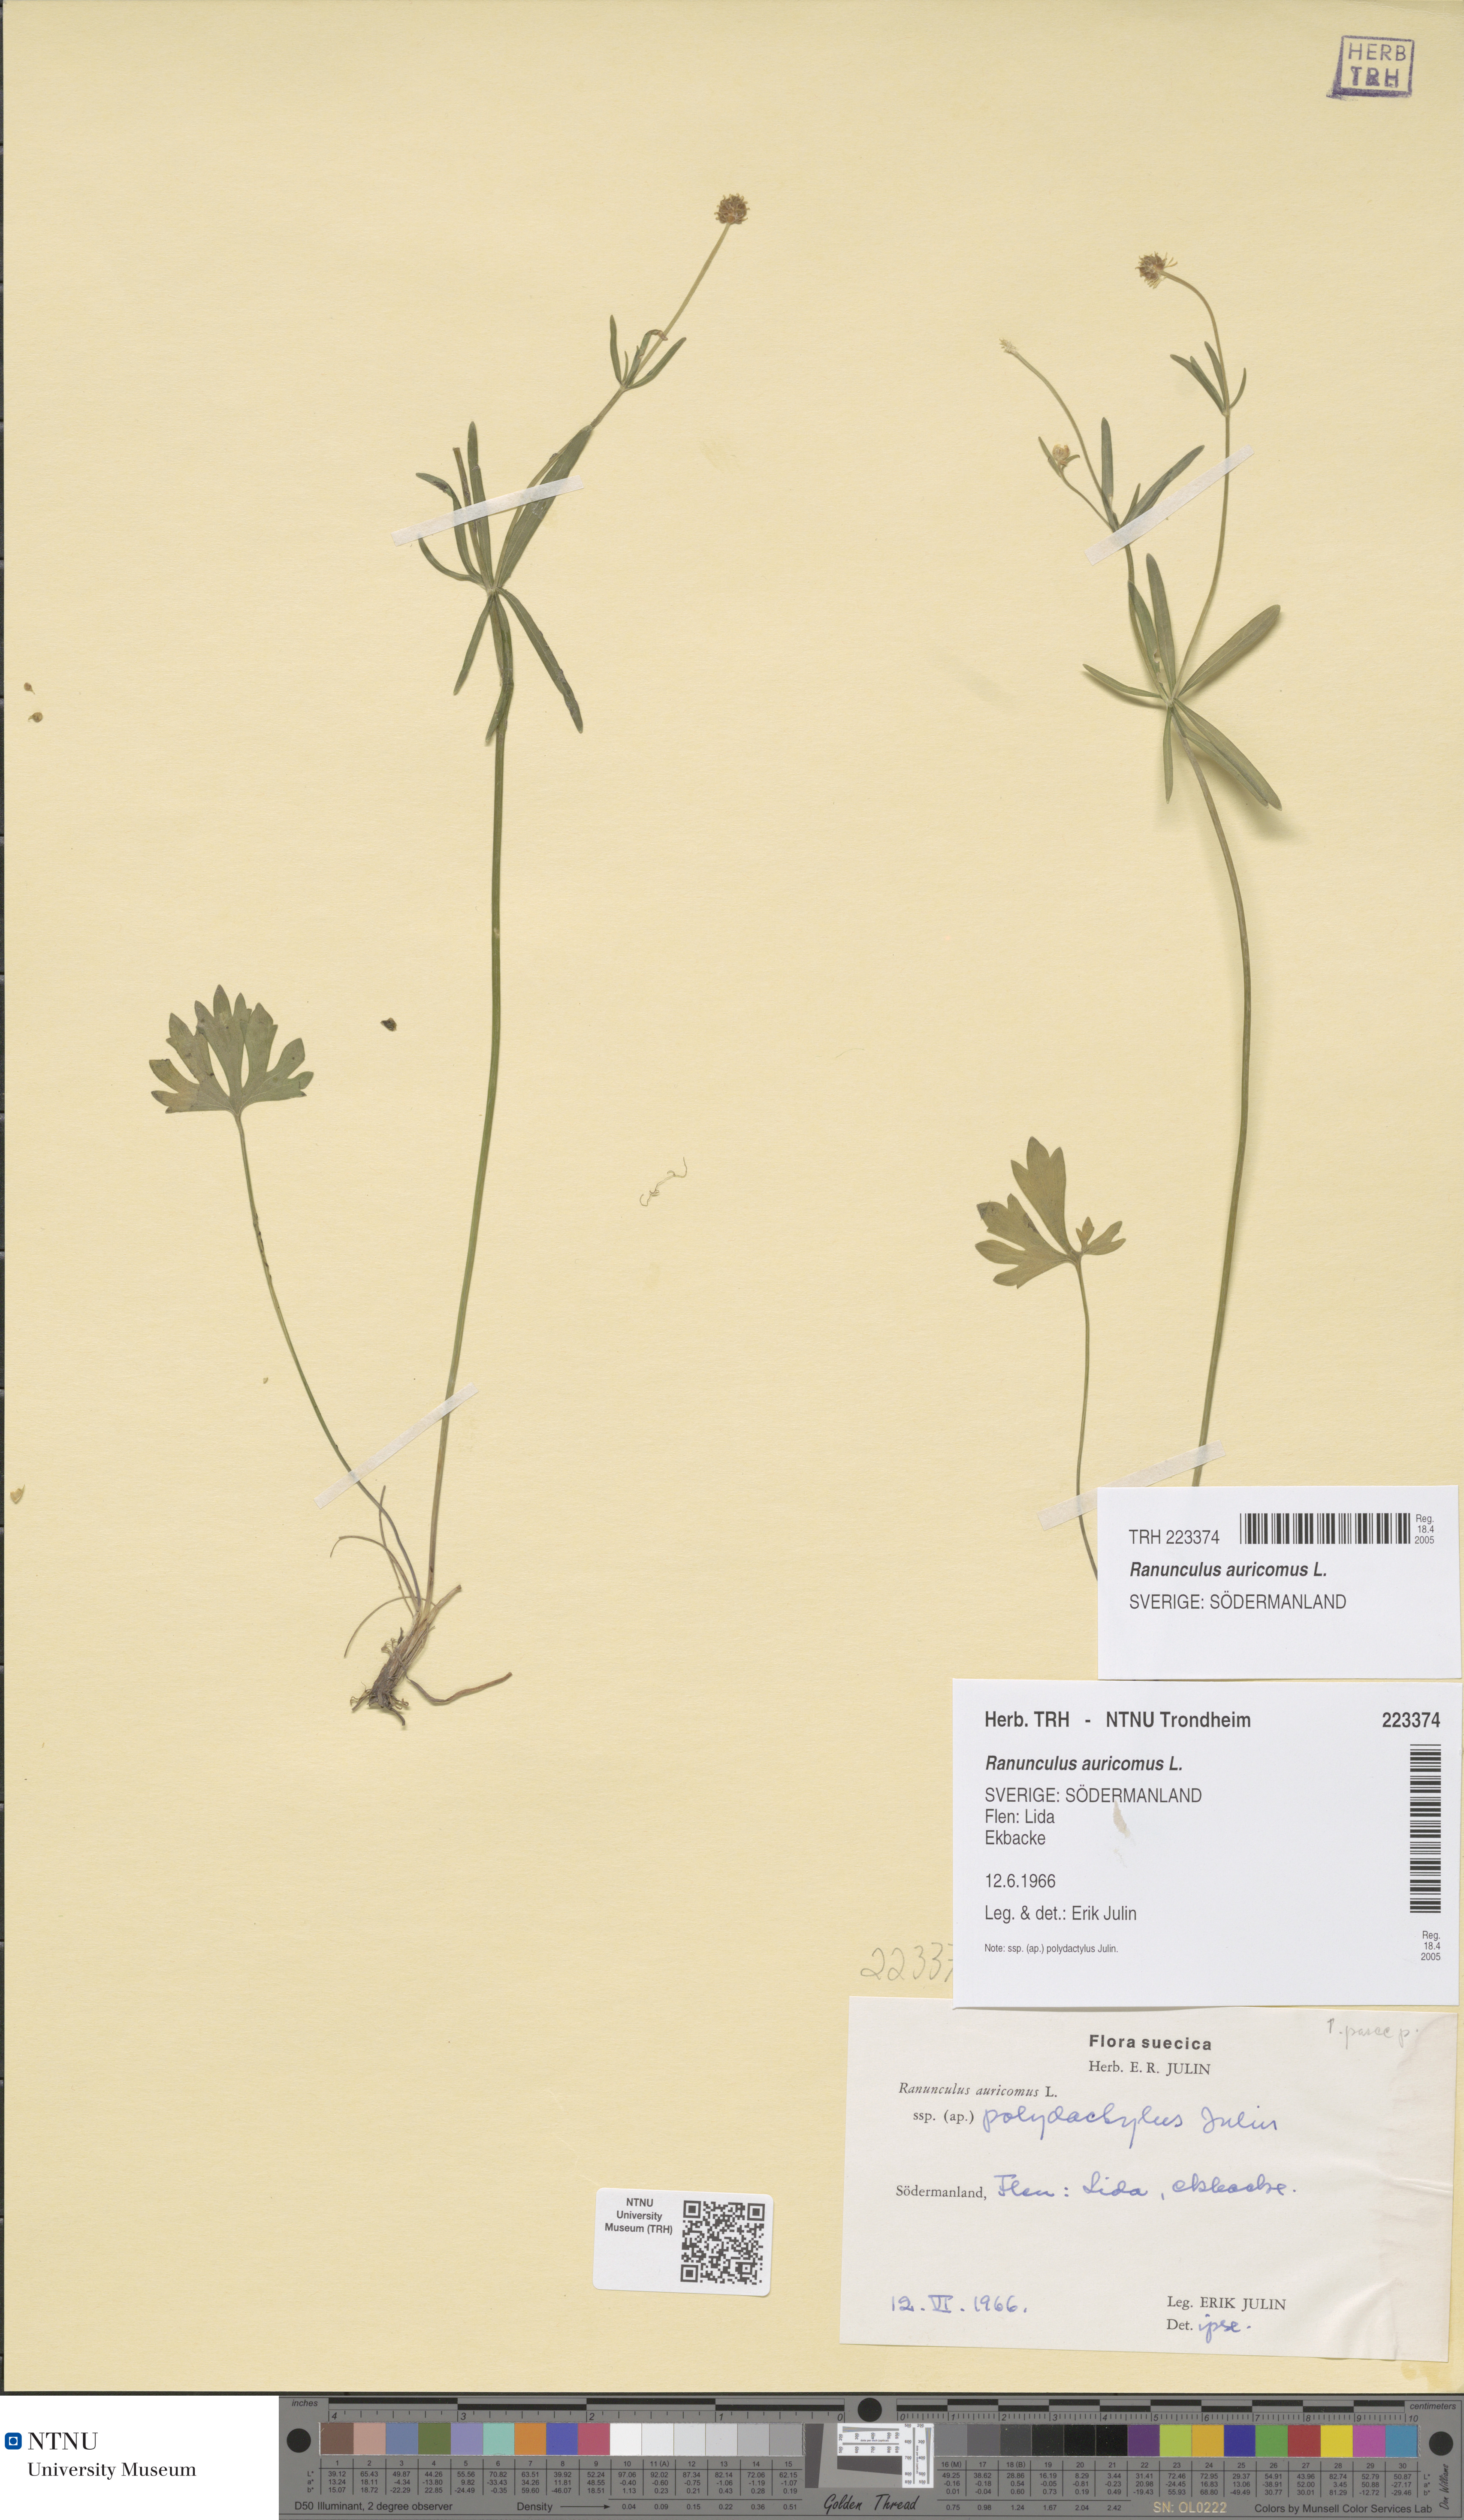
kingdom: Plantae
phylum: Tracheophyta
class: Magnoliopsida
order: Ranunculales
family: Ranunculaceae
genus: Ranunculus
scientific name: Ranunculus auricomus
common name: Goldilocks buttercup
